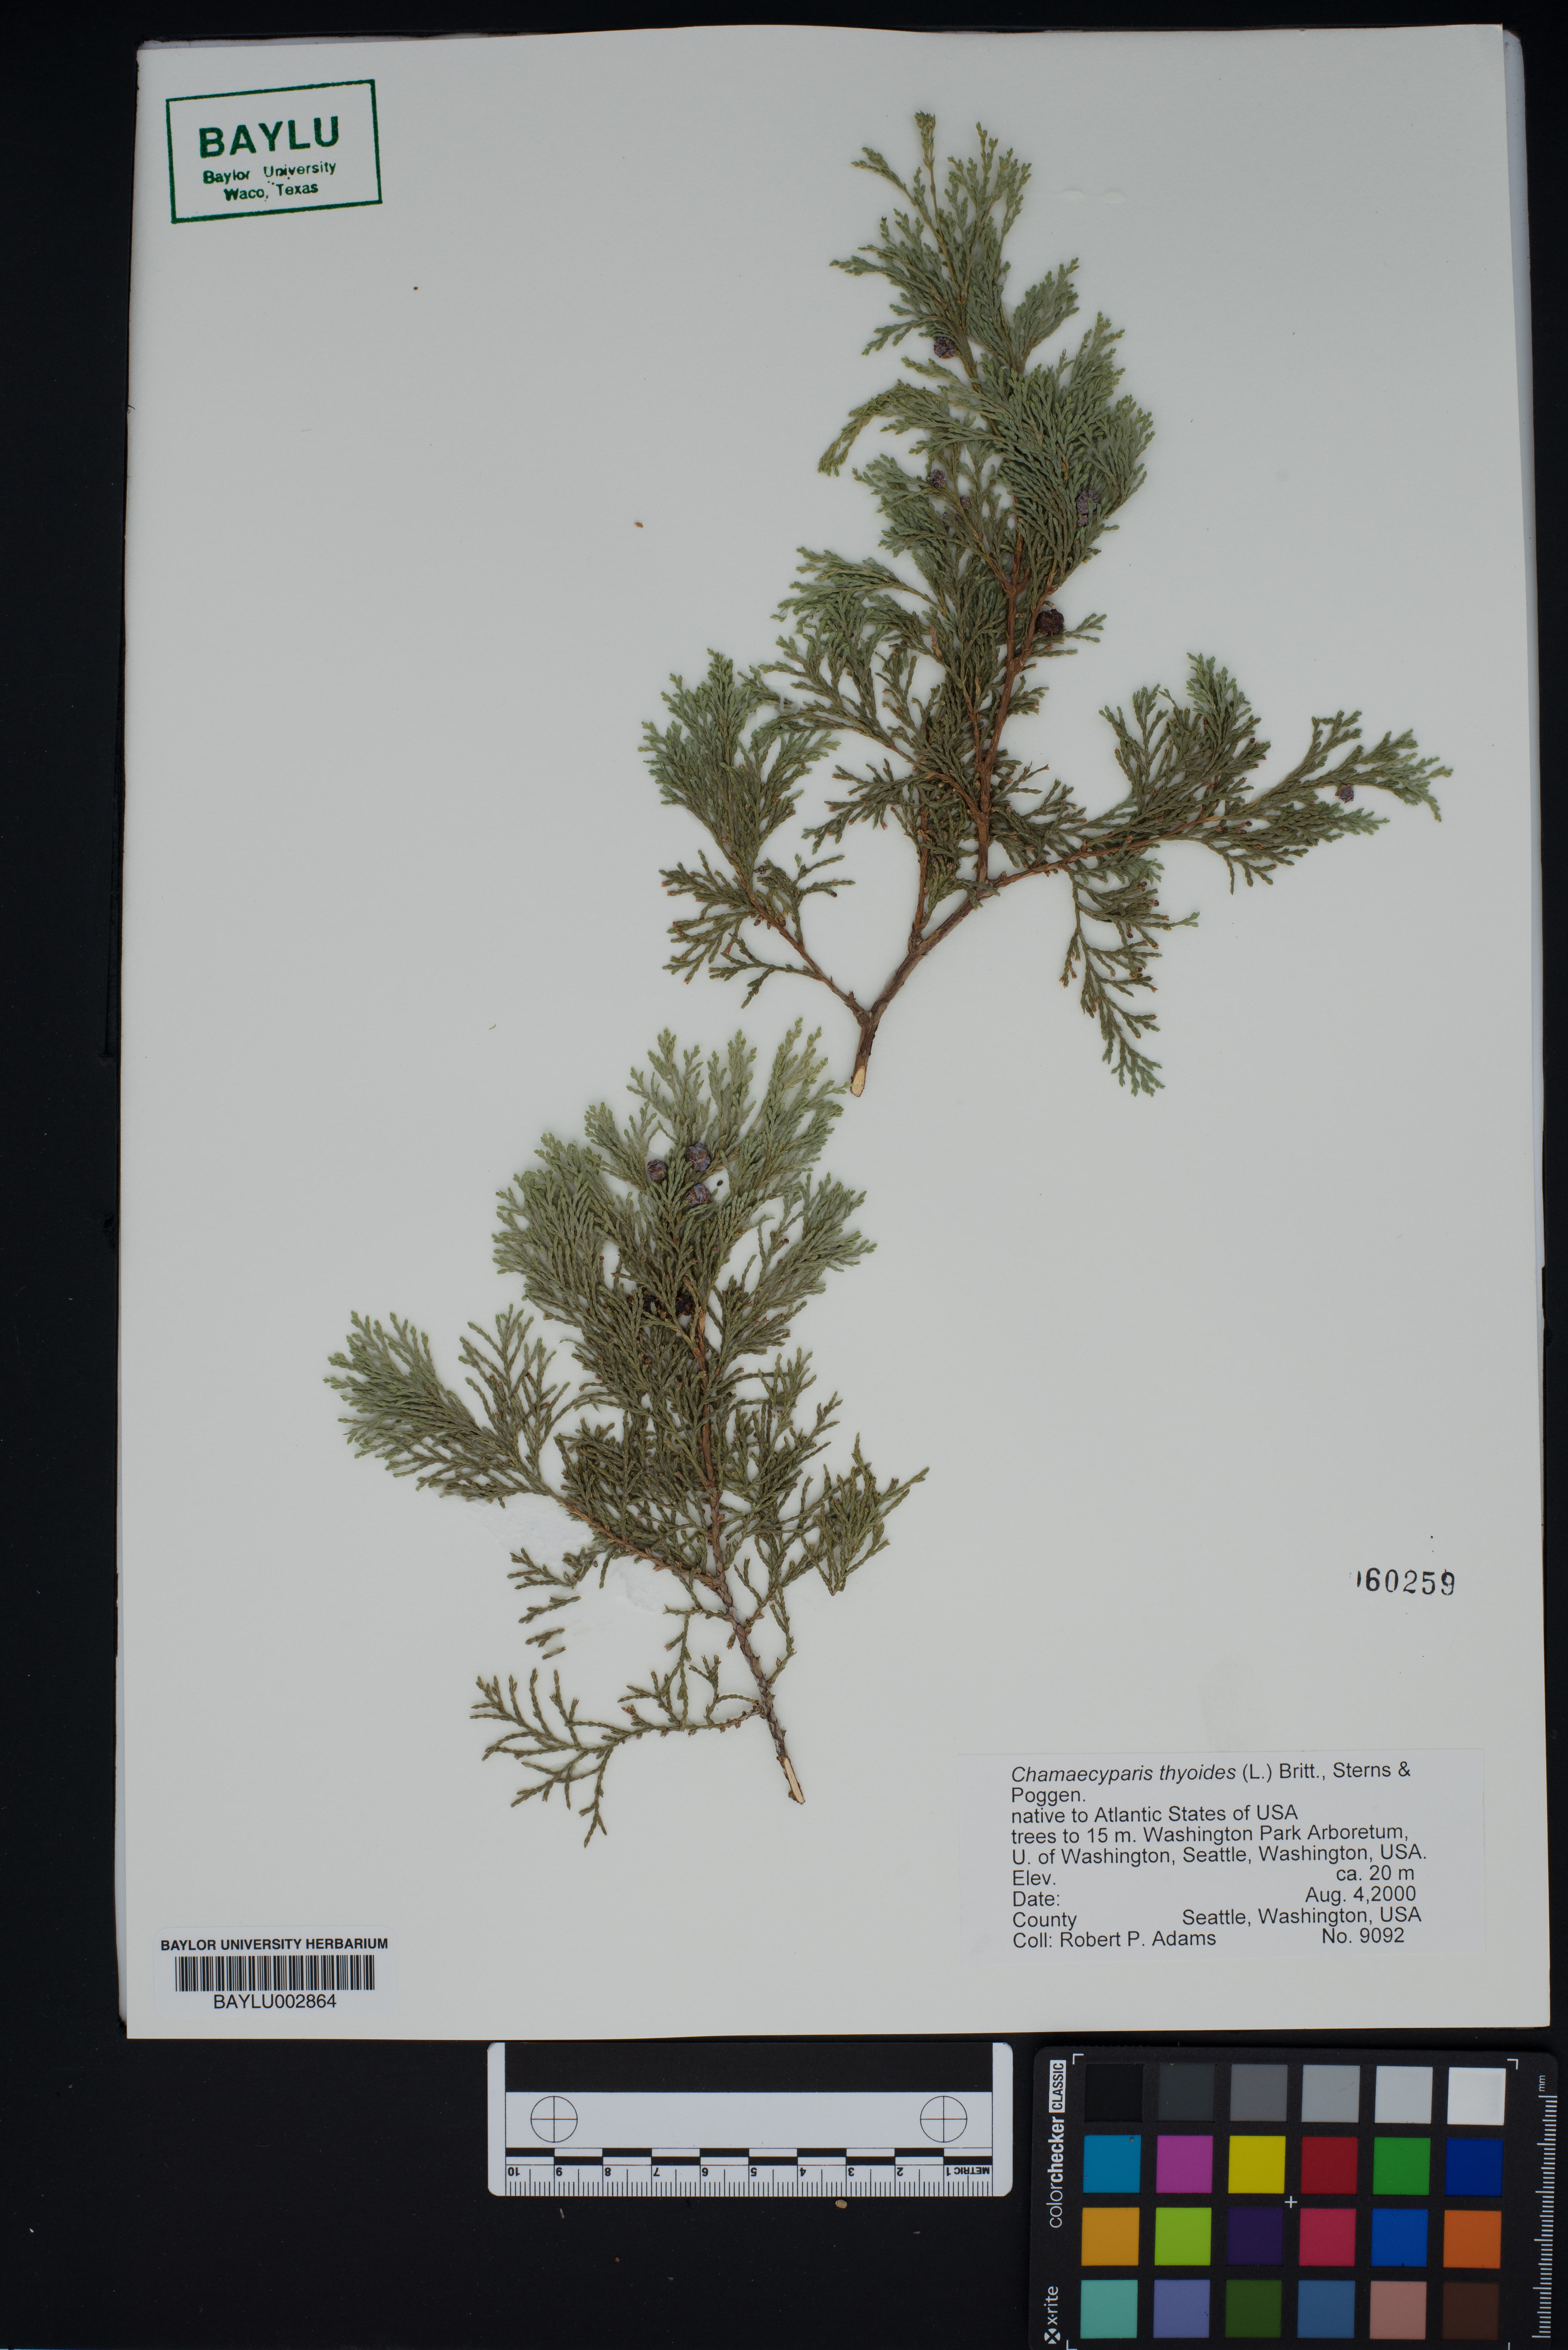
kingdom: Plantae
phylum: Tracheophyta
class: Pinopsida
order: Pinales
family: Cupressaceae
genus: Chamaecyparis
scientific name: Chamaecyparis thyoides
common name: Atlantic white cedar
